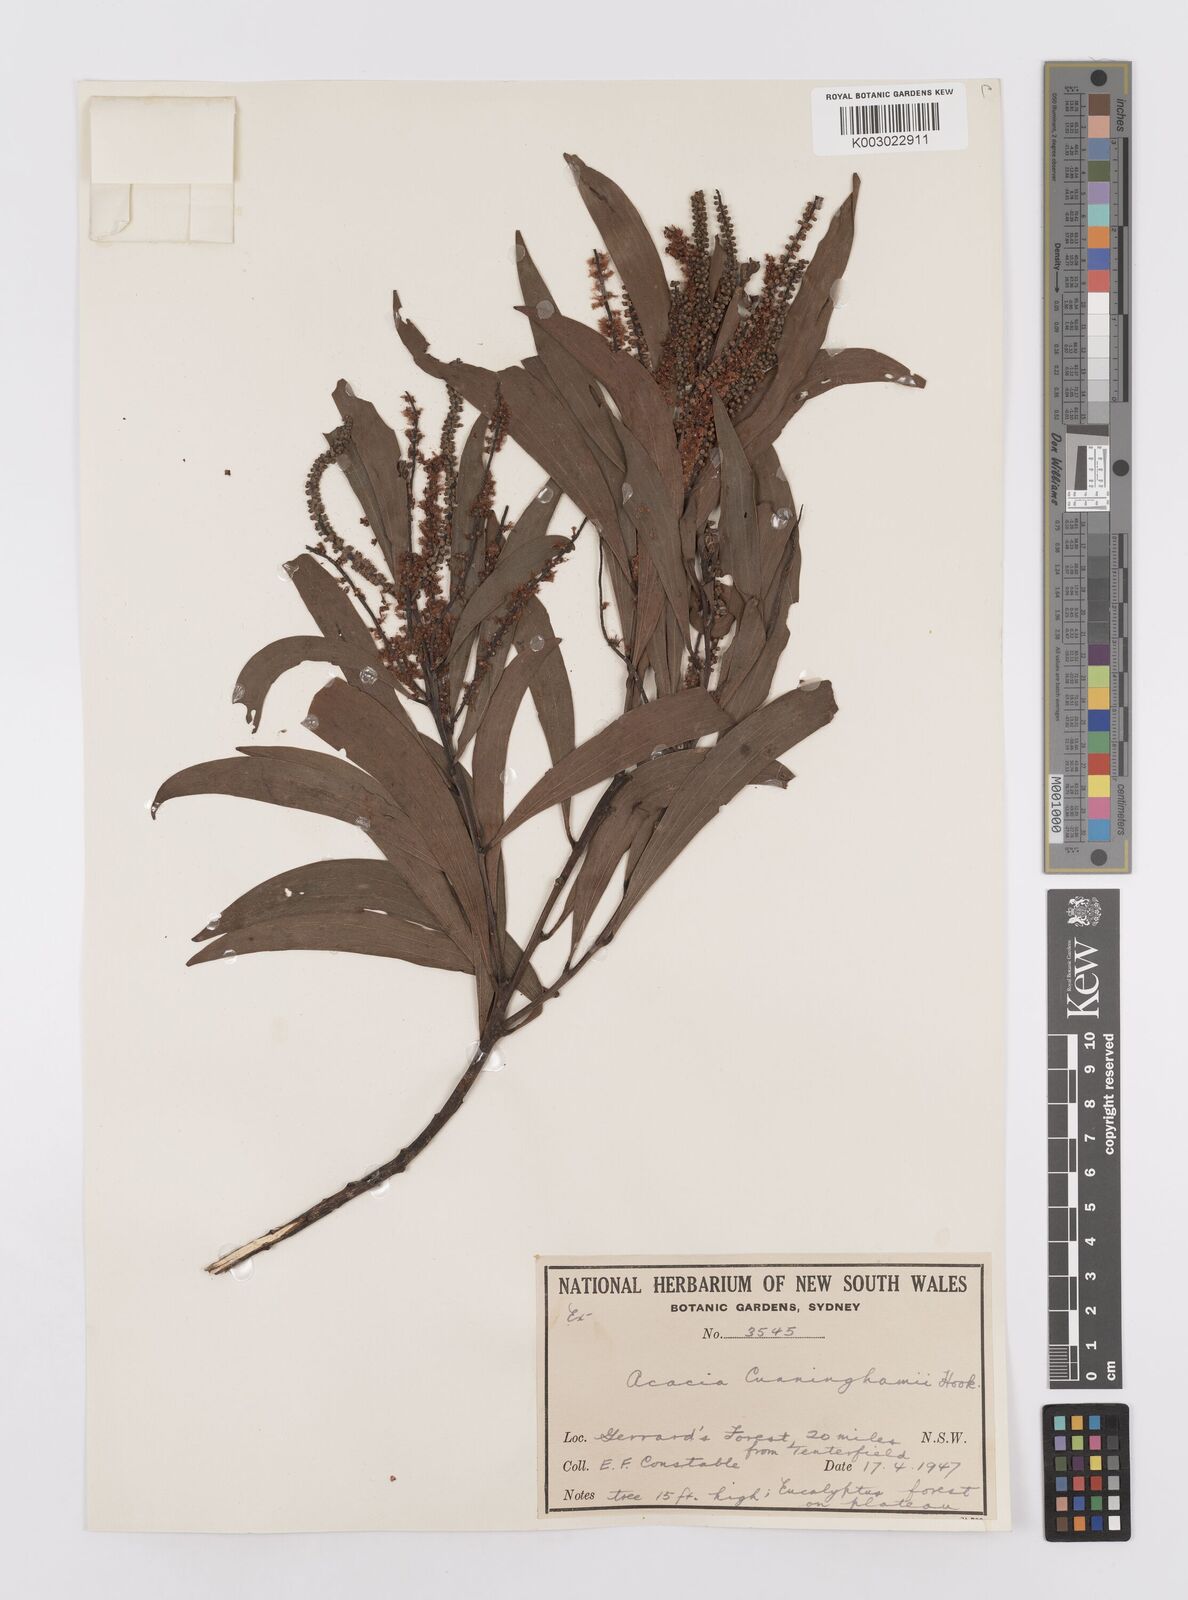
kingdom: Plantae
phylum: Tracheophyta
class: Magnoliopsida
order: Fabales
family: Fabaceae
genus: Acacia
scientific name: Acacia longispicata
